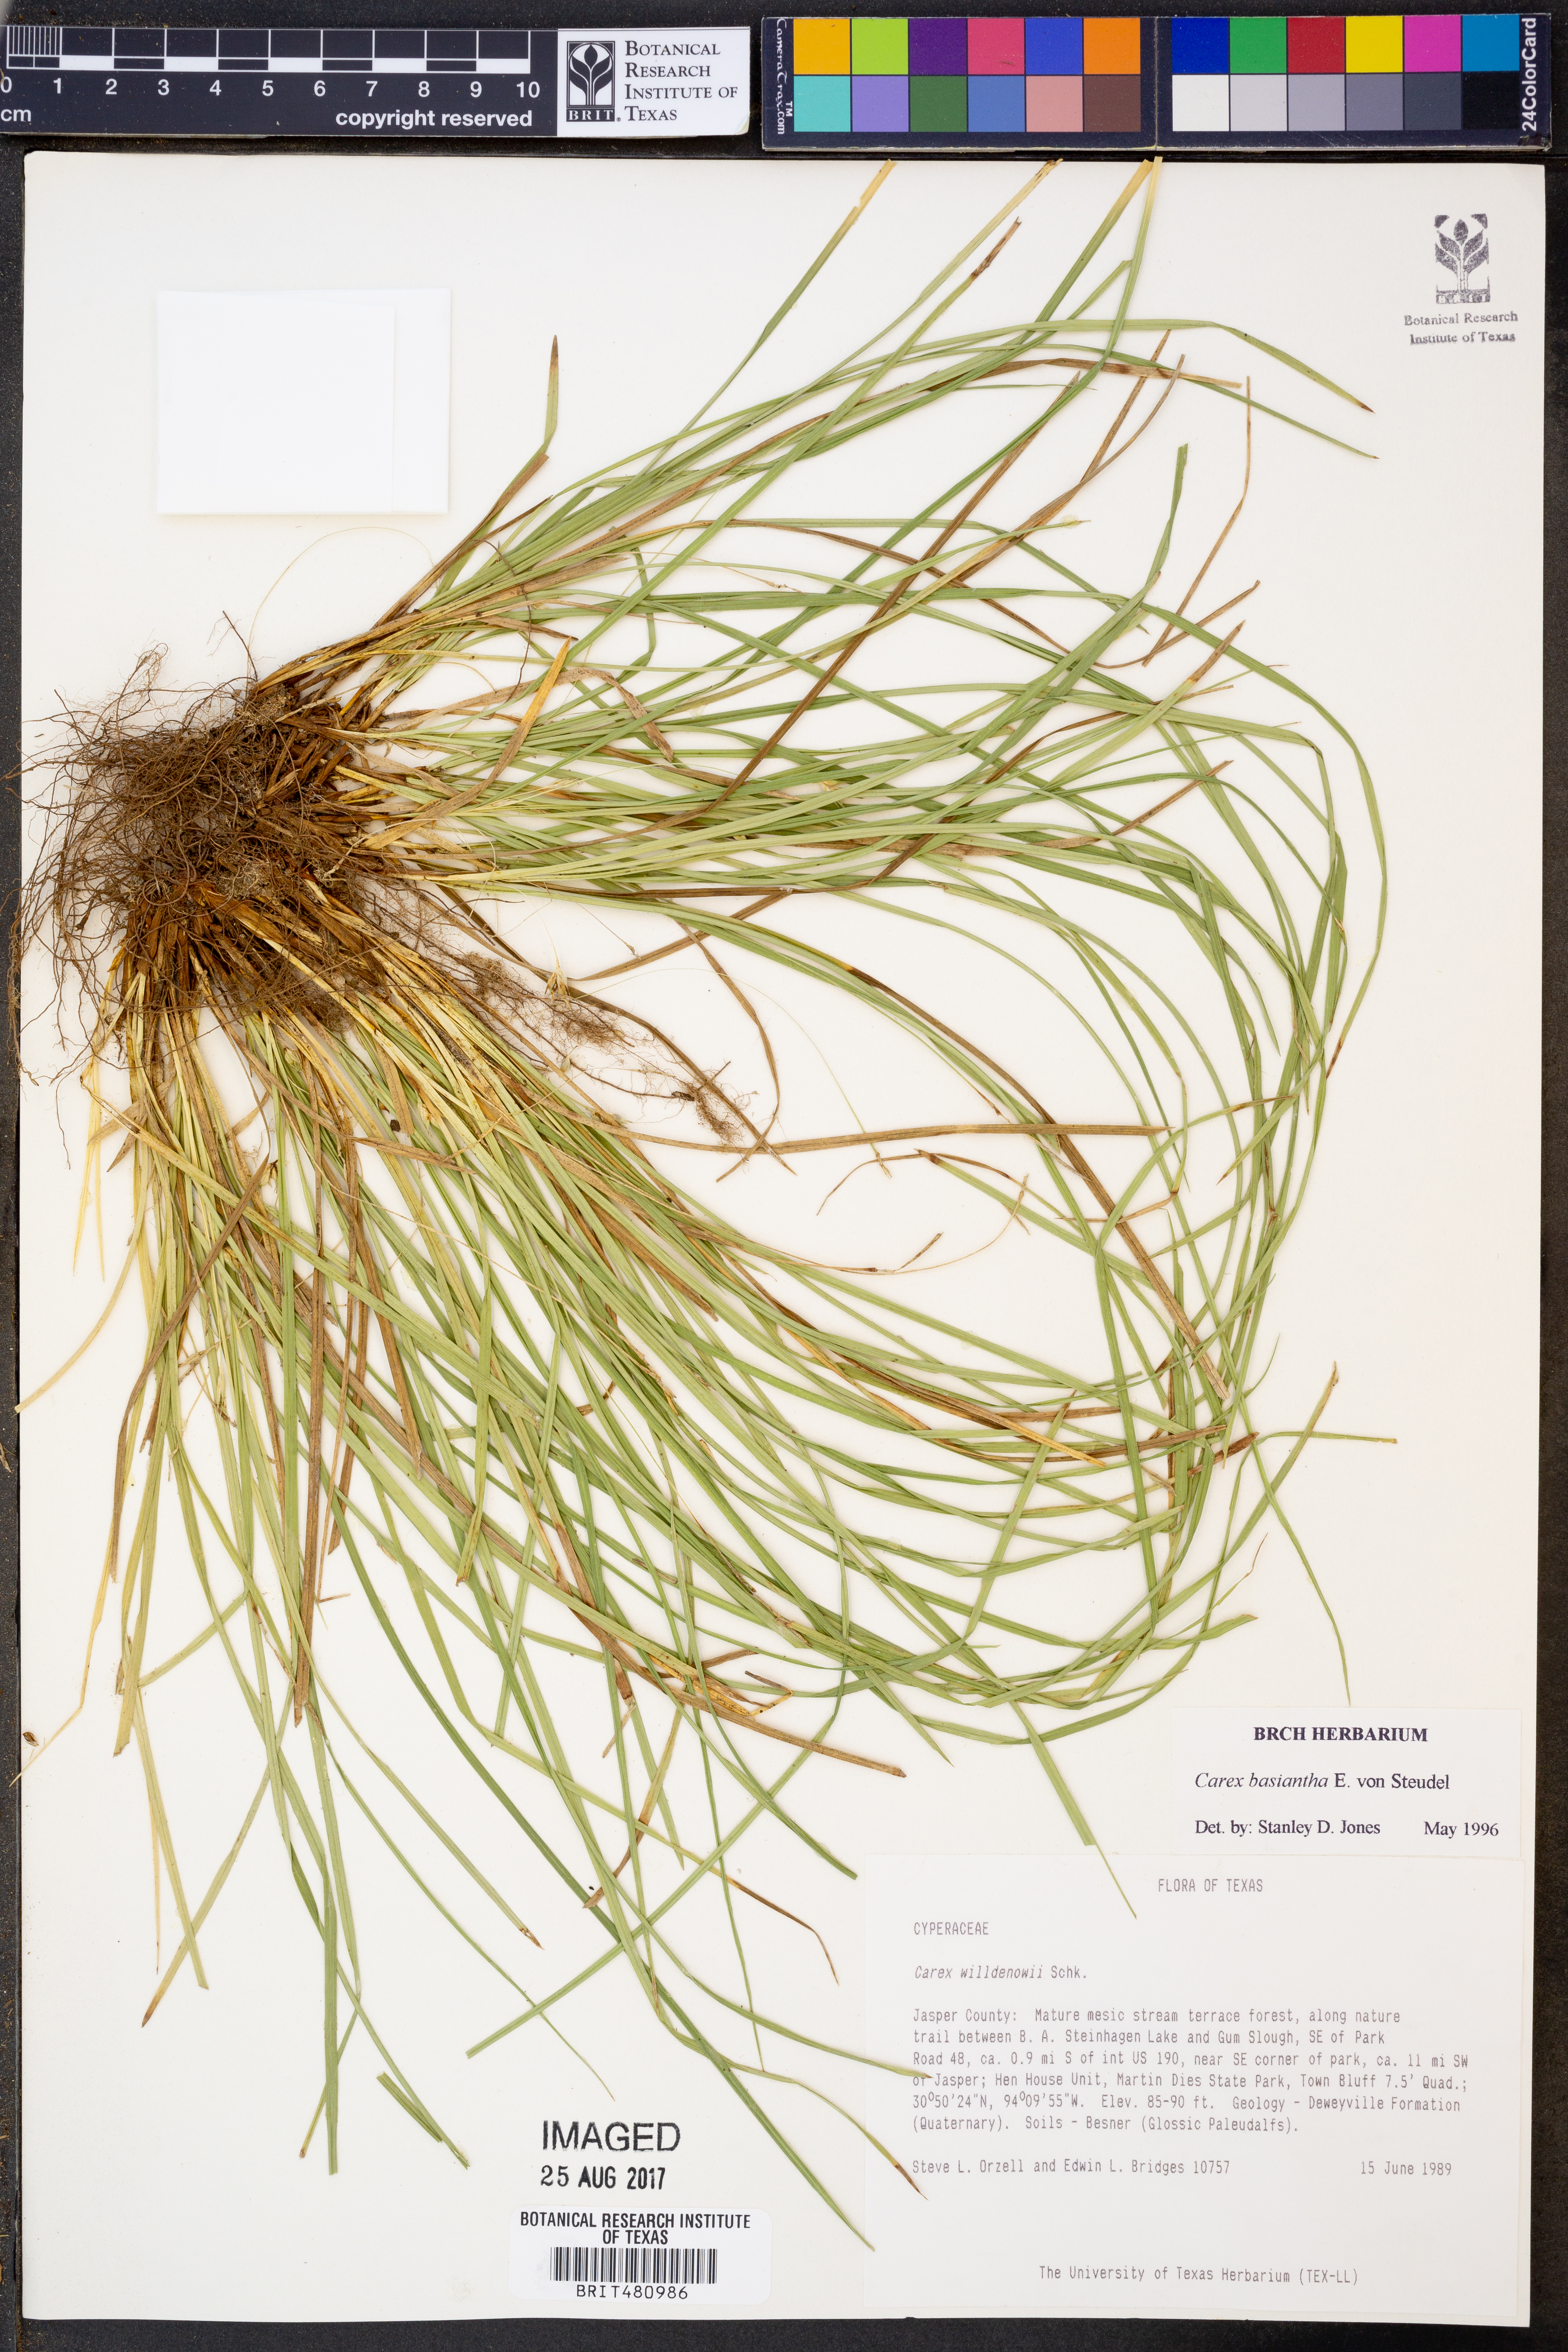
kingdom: Plantae
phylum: Tracheophyta
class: Liliopsida
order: Poales
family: Cyperaceae
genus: Carex
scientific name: Carex basiantha
